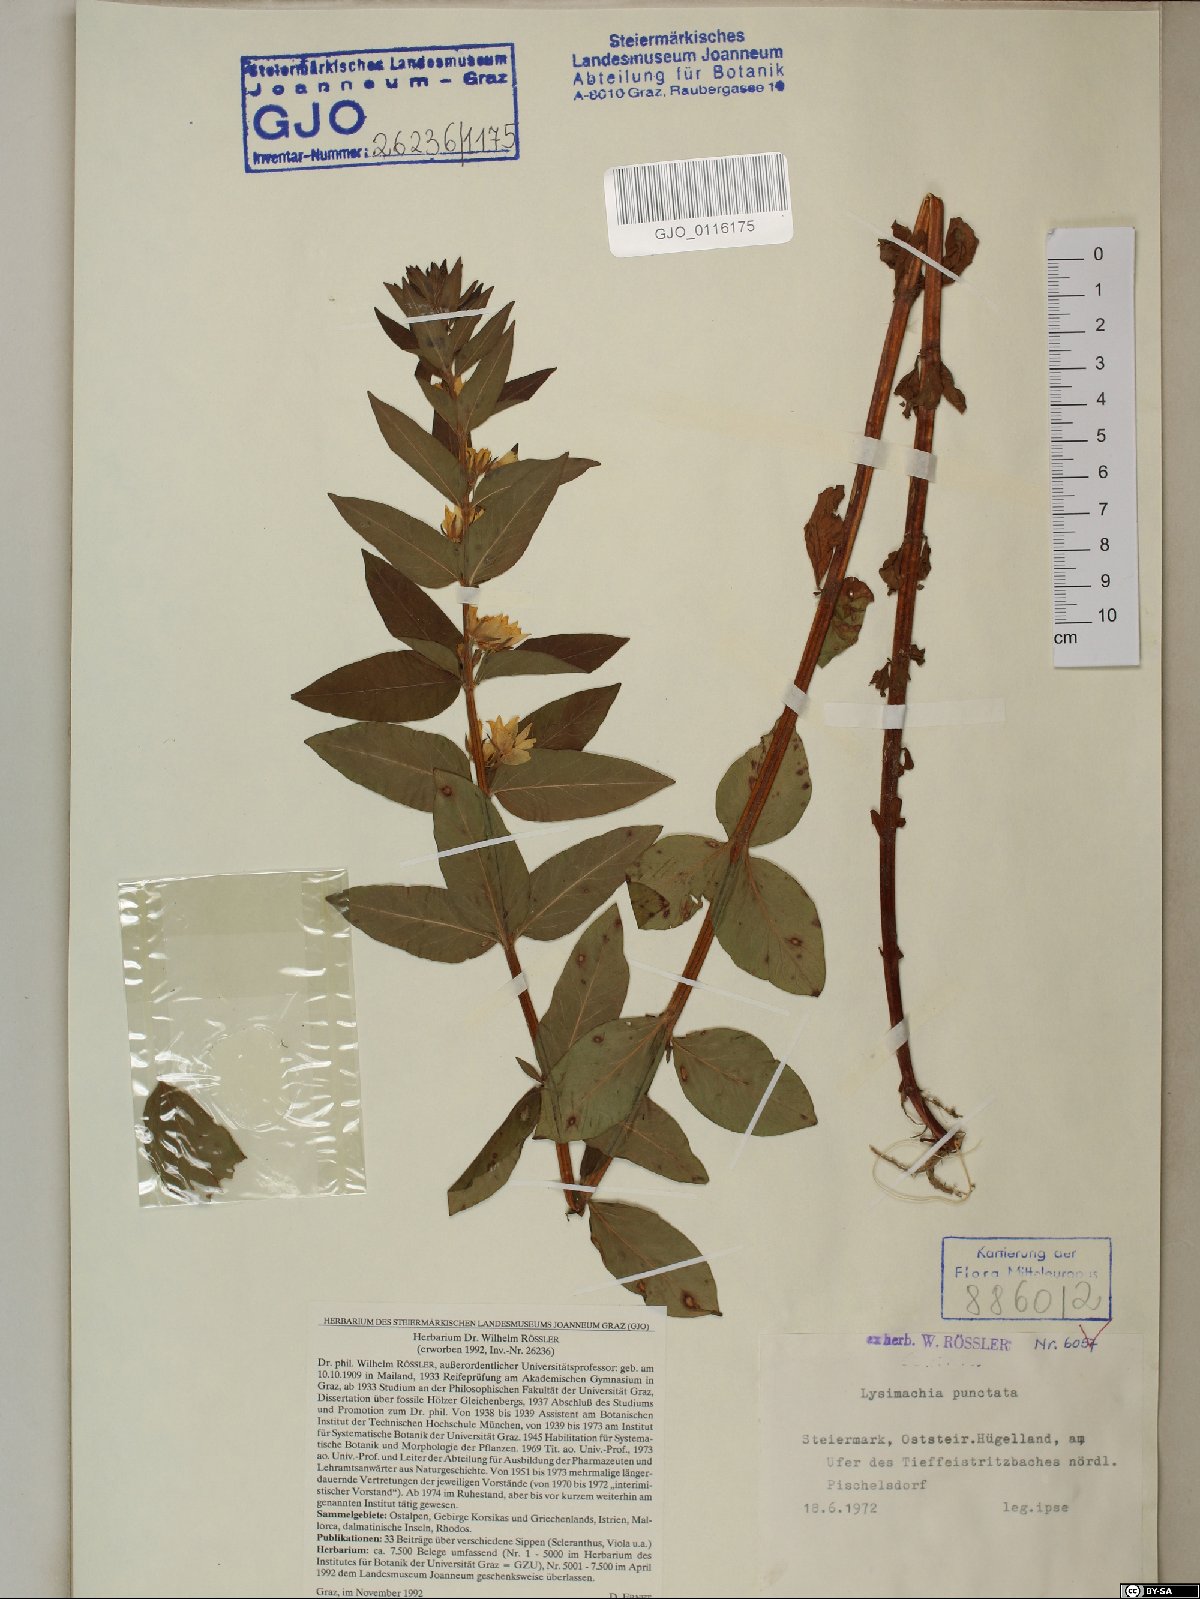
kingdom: Plantae
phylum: Tracheophyta
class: Magnoliopsida
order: Ericales
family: Primulaceae
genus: Lysimachia
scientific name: Lysimachia punctata
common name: Dotted loosestrife
